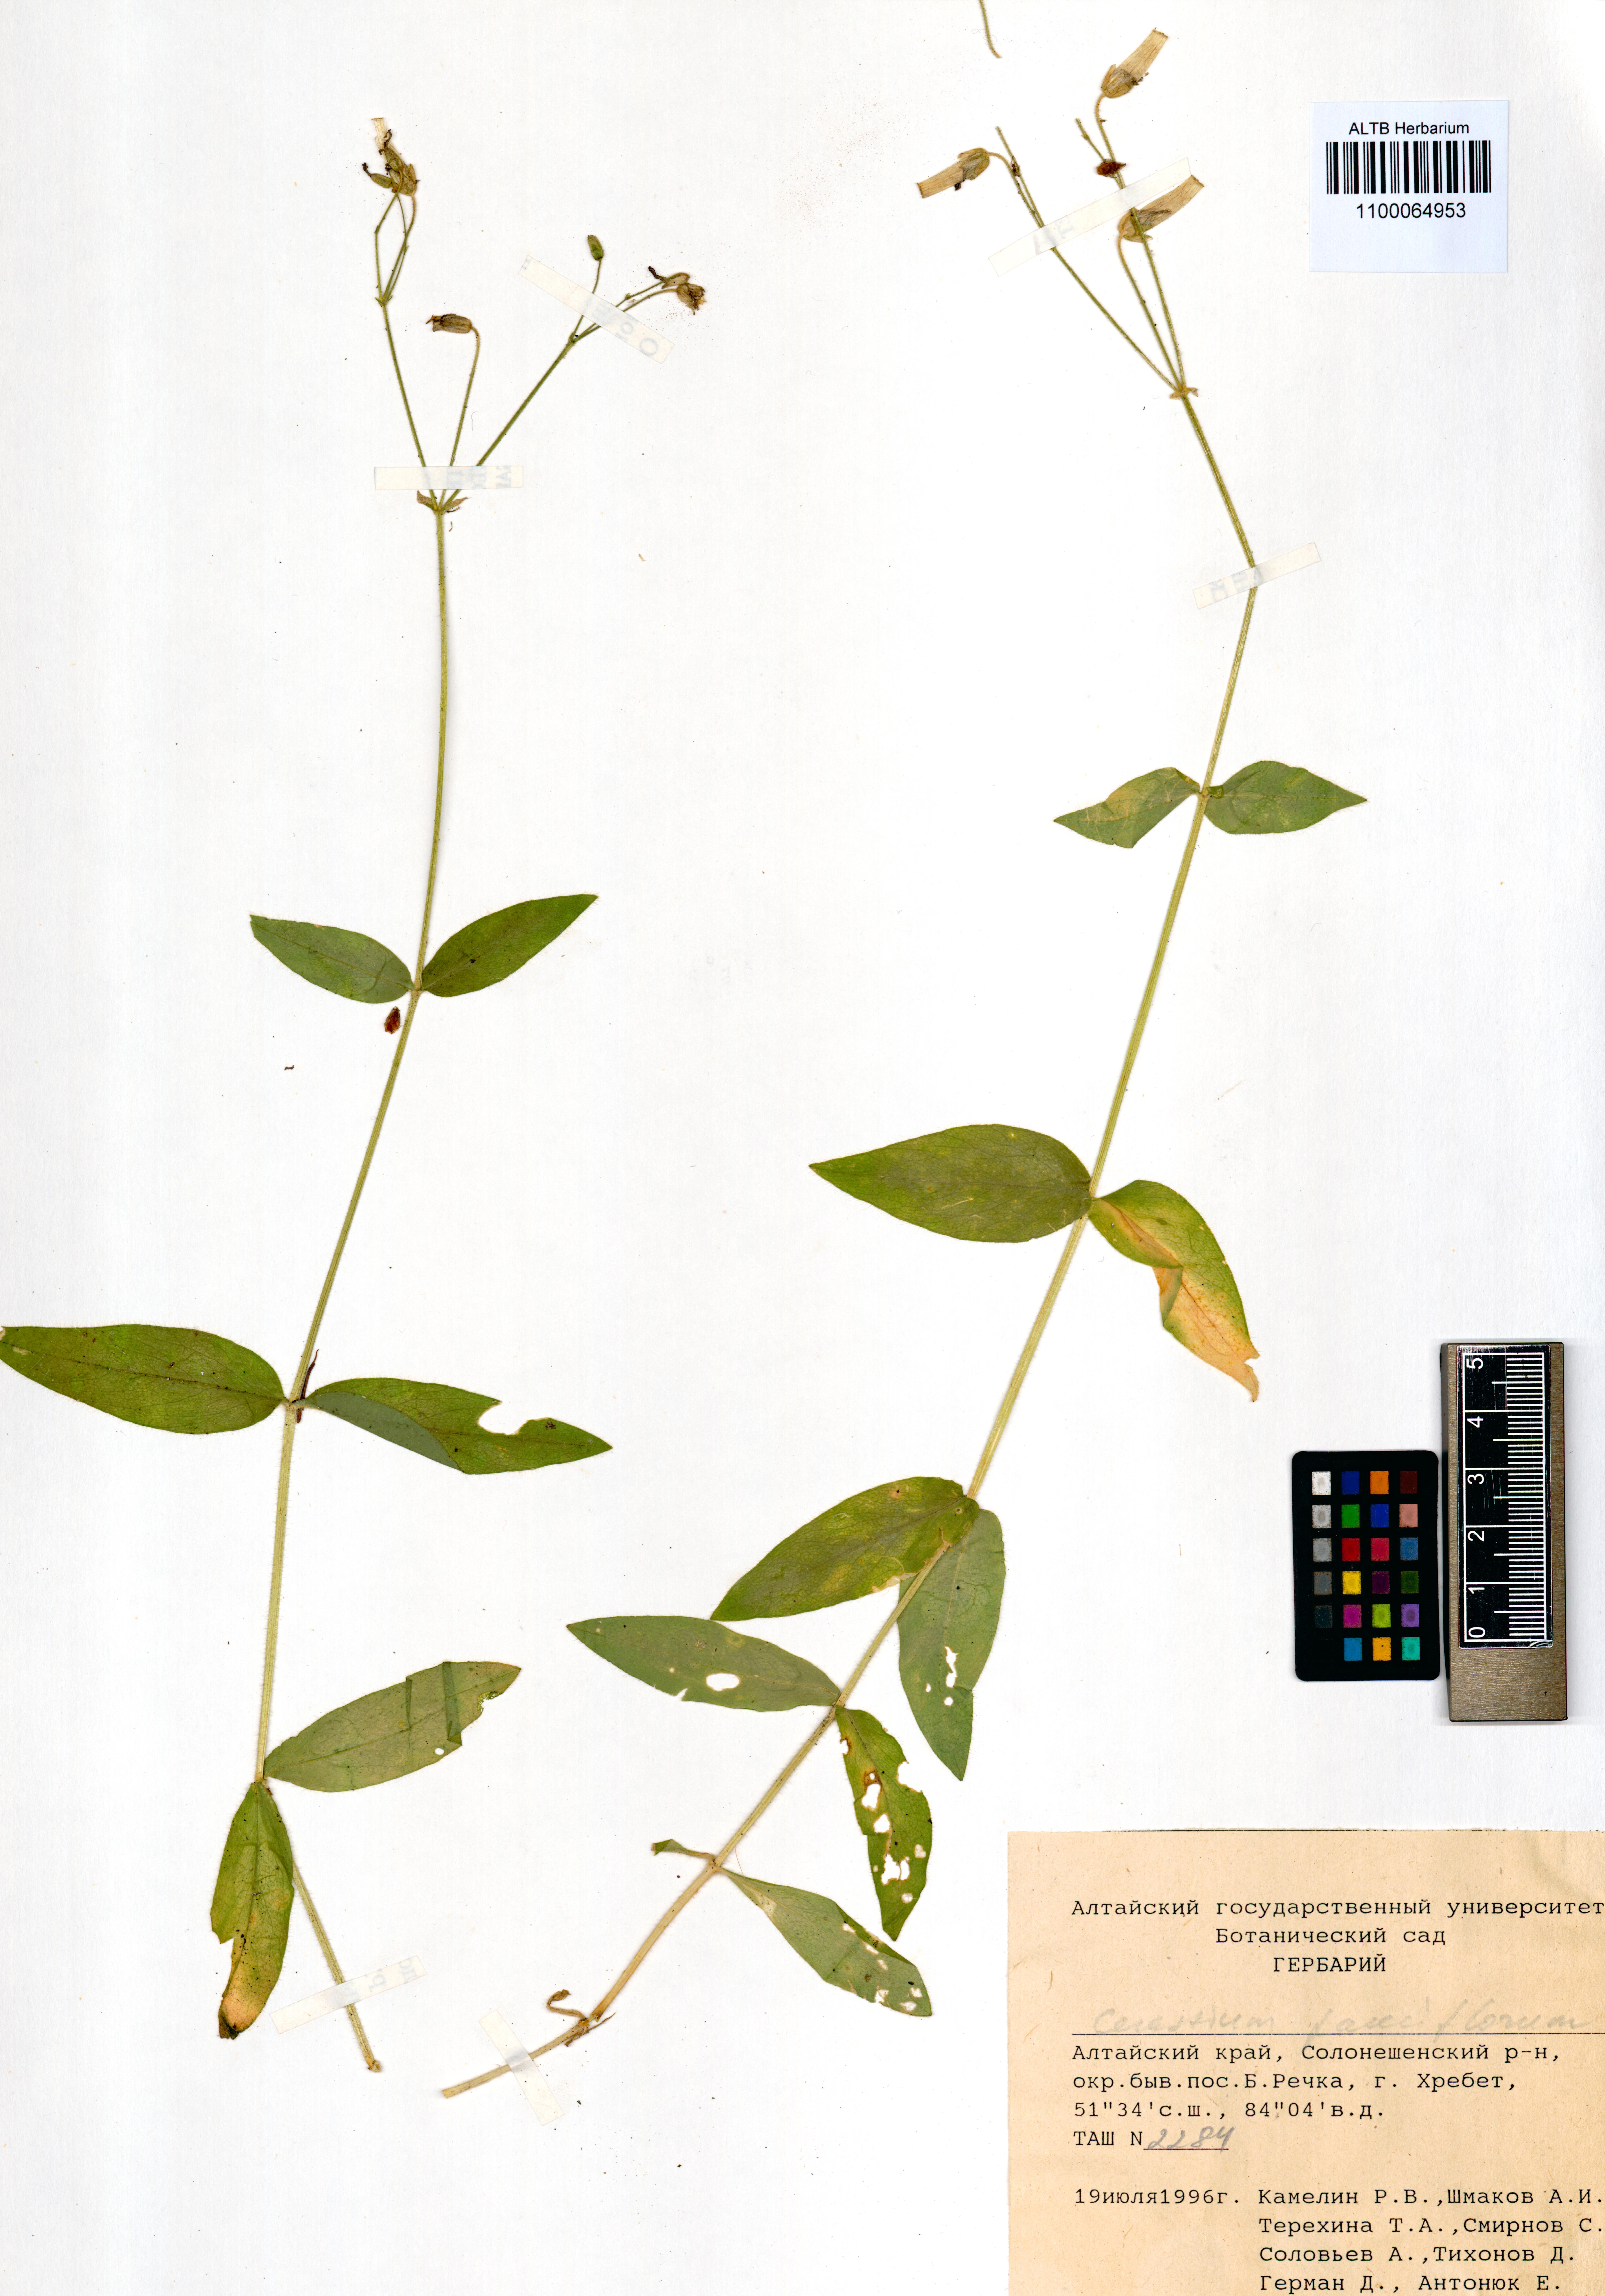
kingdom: Plantae
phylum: Tracheophyta
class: Magnoliopsida
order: Caryophyllales
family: Caryophyllaceae
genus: Cerastium
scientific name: Cerastium pauciflorum
